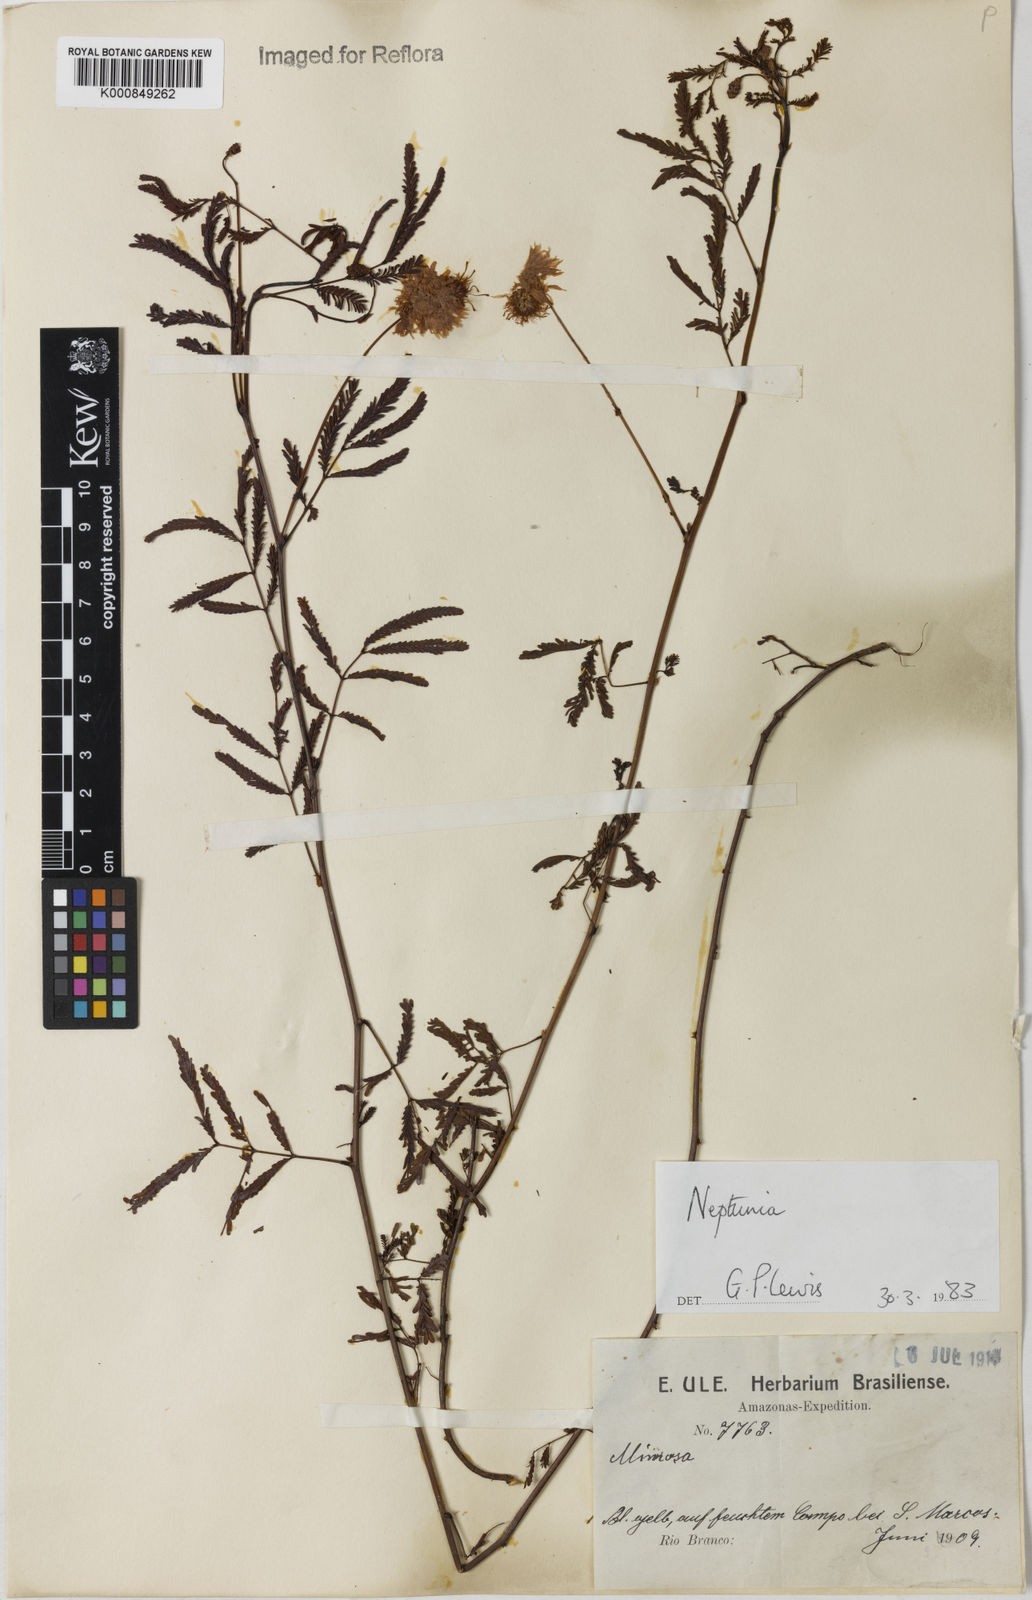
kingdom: Plantae
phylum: Tracheophyta
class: Magnoliopsida
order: Fabales
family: Fabaceae
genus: Neptunia
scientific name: Neptunia
